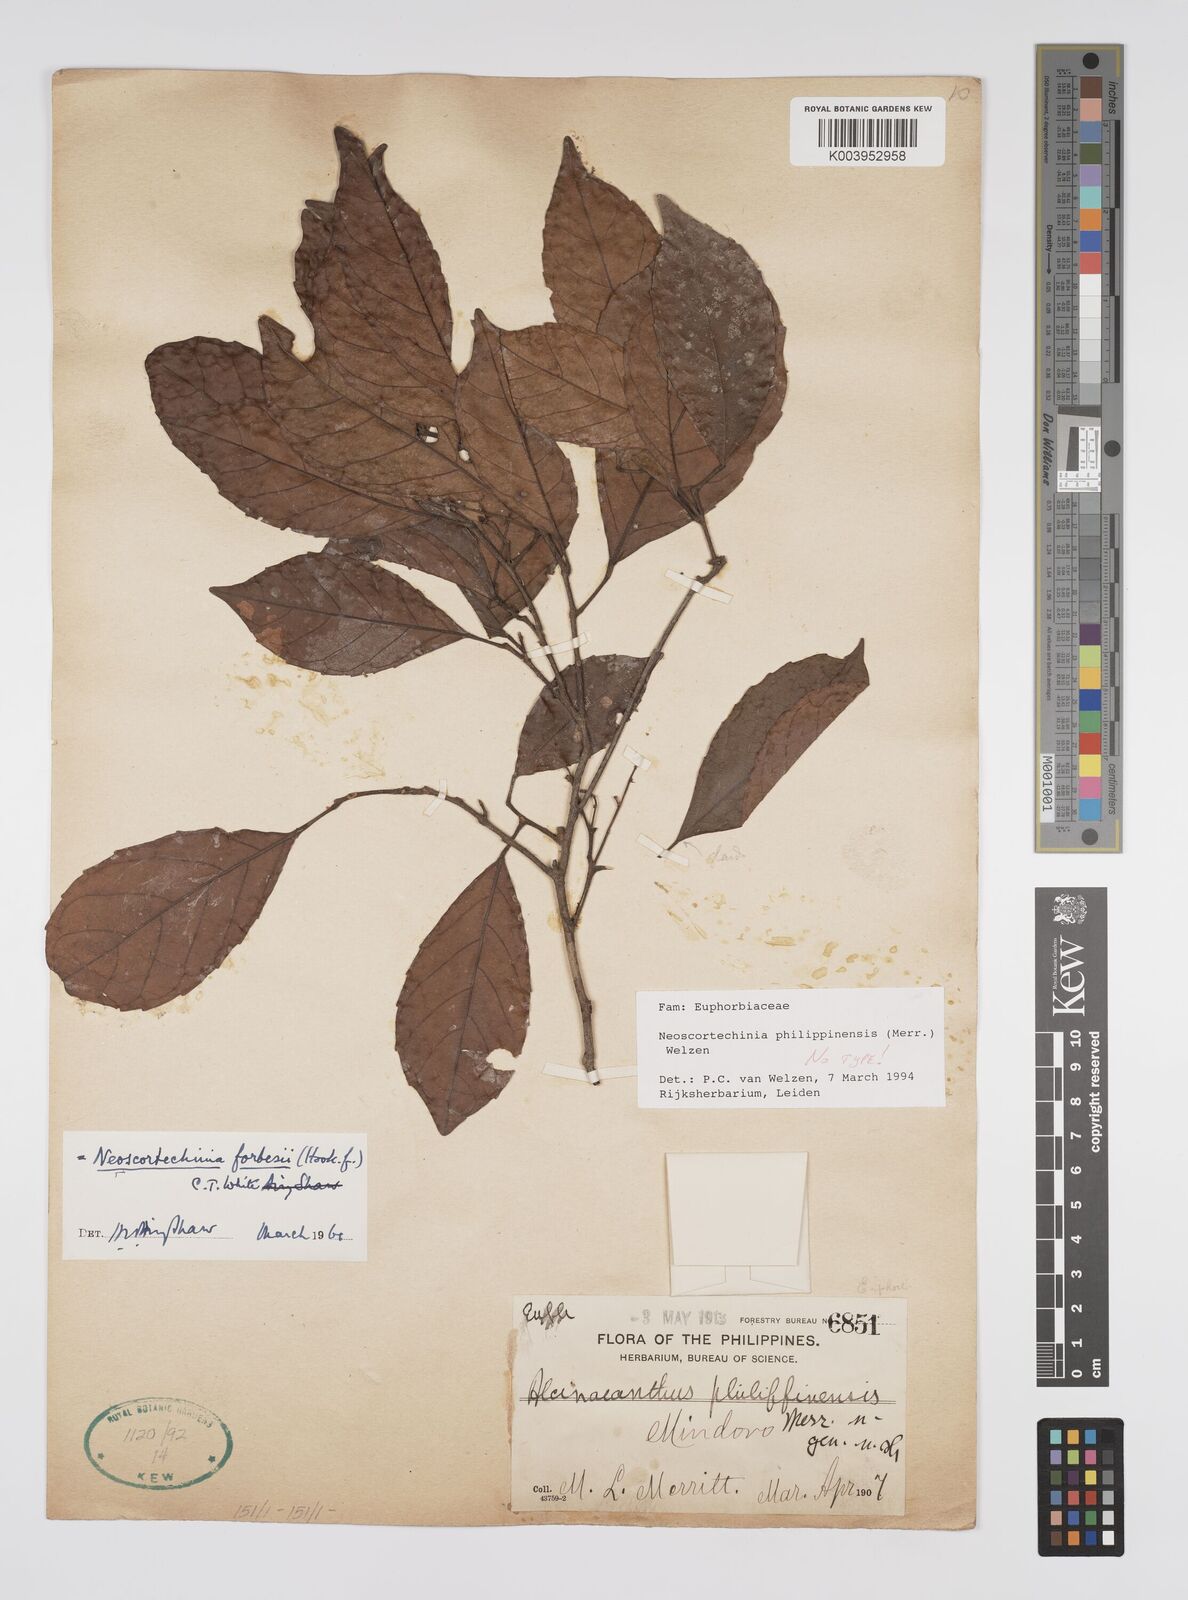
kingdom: Plantae
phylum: Tracheophyta
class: Magnoliopsida
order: Malpighiales
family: Euphorbiaceae
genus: Neoscortechinia
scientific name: Neoscortechinia philippinensis
